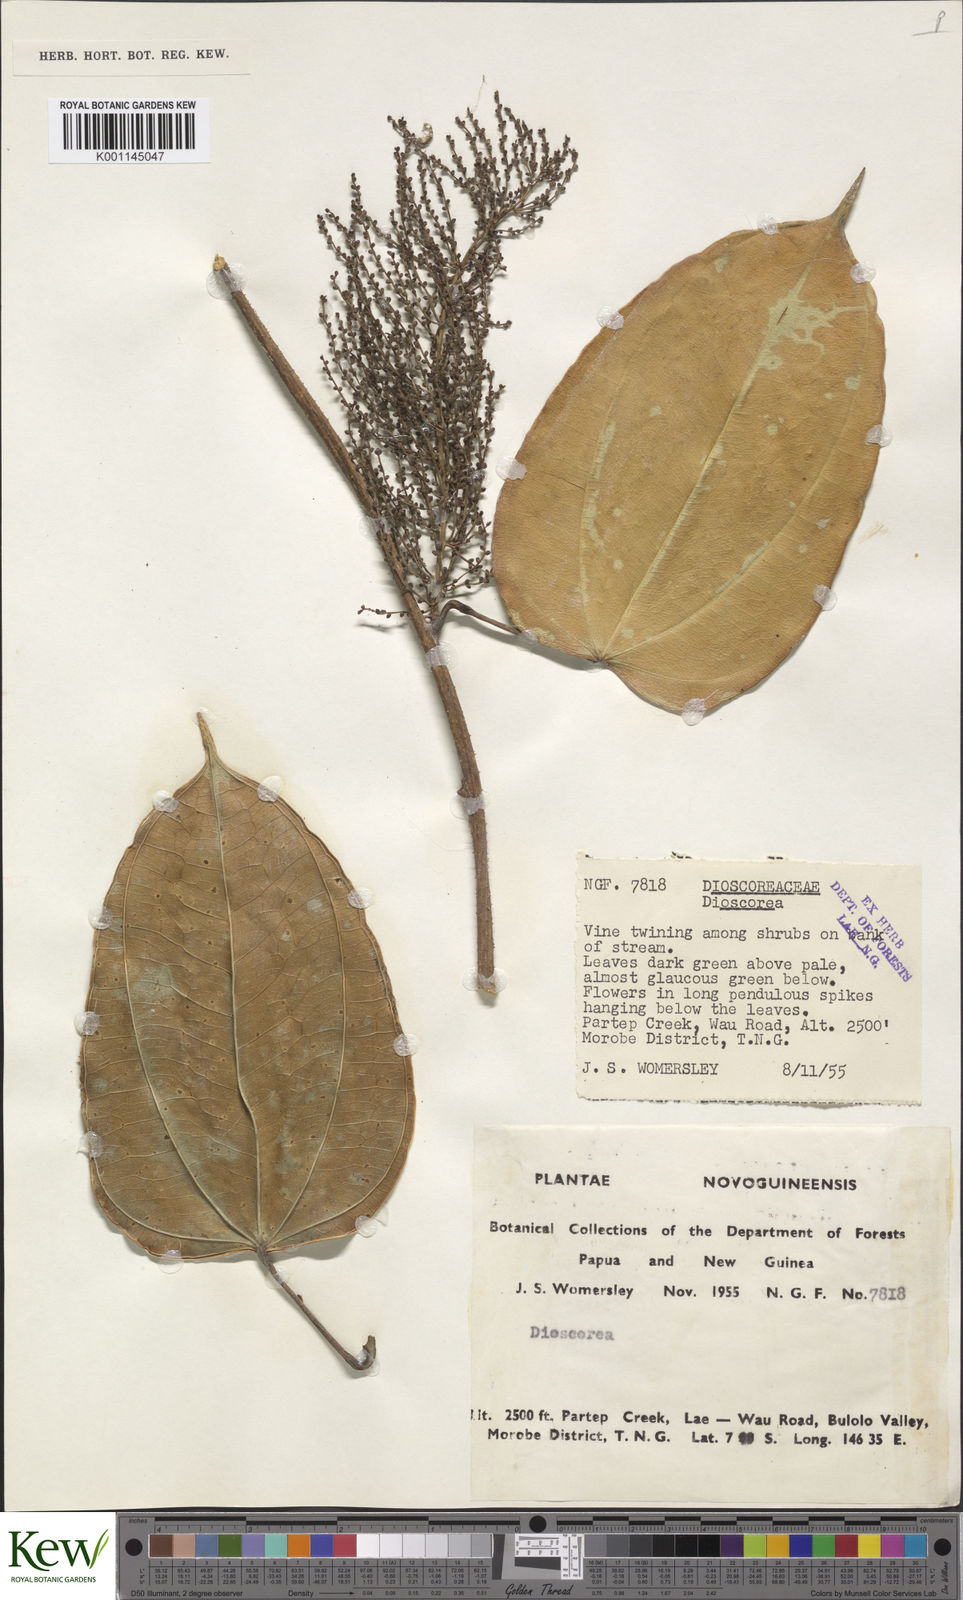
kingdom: Plantae
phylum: Tracheophyta
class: Liliopsida
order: Dioscoreales
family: Dioscoreaceae
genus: Dioscorea
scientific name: Dioscorea
